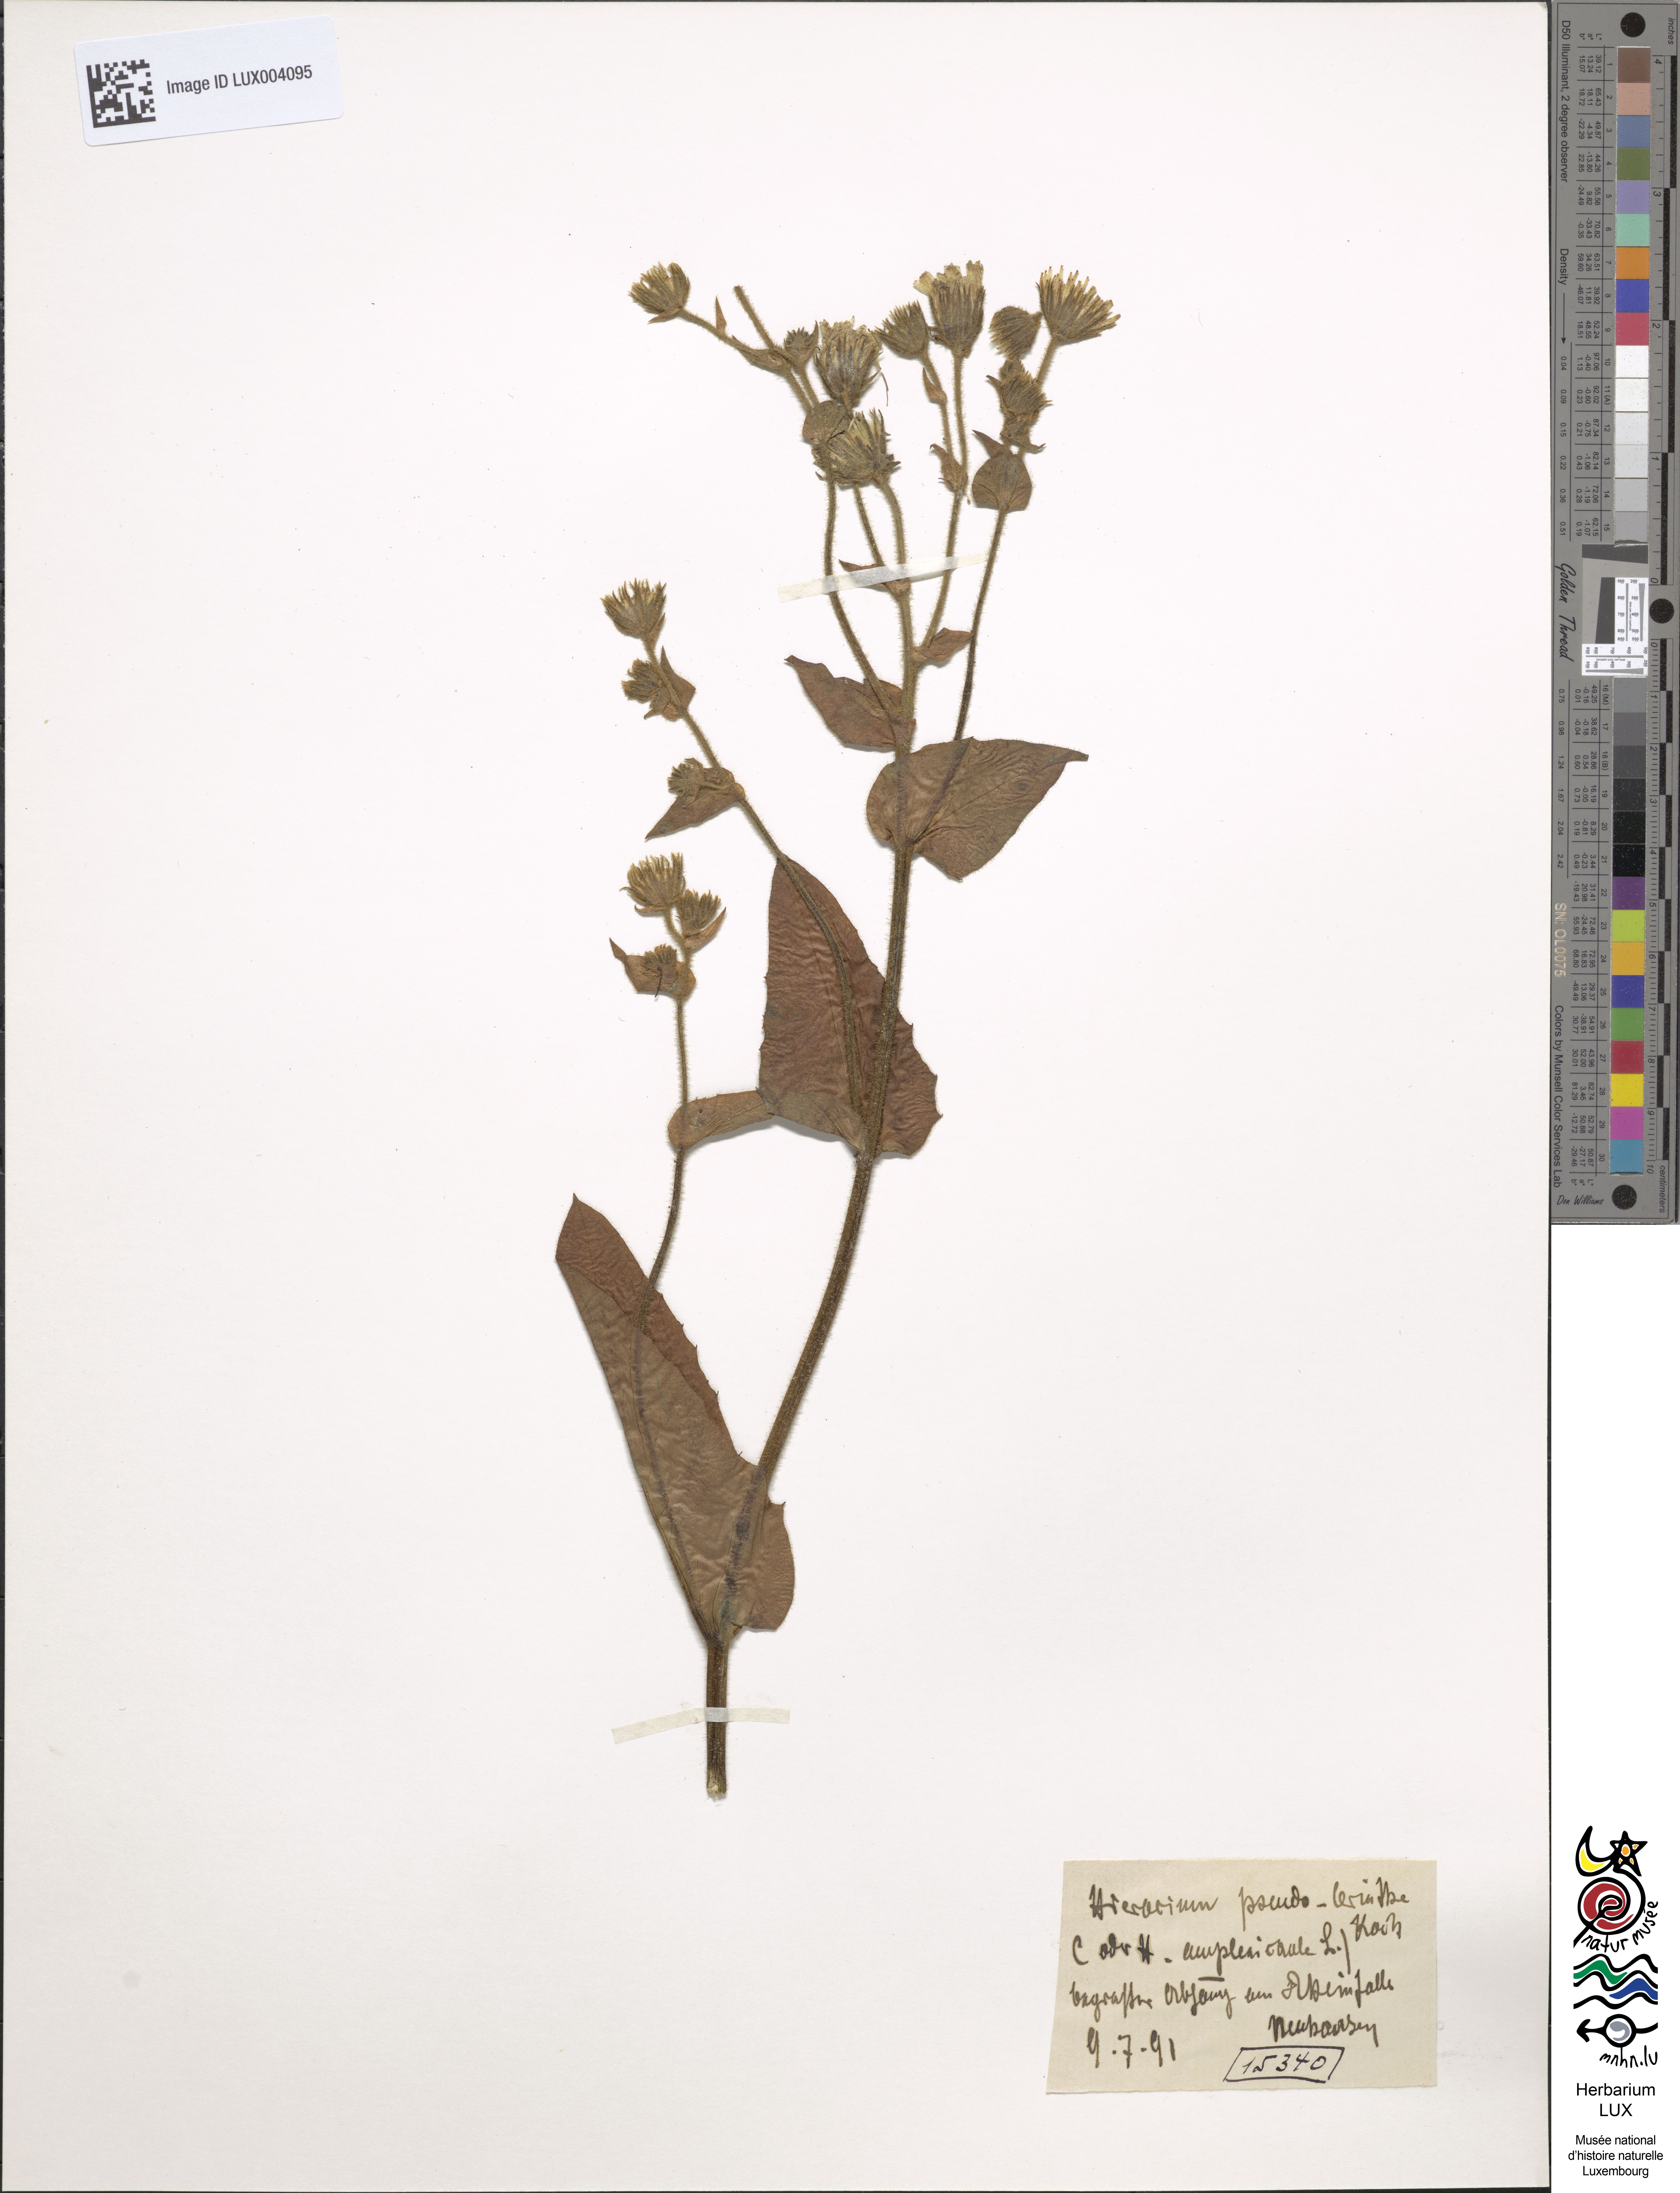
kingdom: Plantae
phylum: Tracheophyta
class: Magnoliopsida
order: Asterales
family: Asteraceae
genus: Hieracium
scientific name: Hieracium pseudocerinthe
